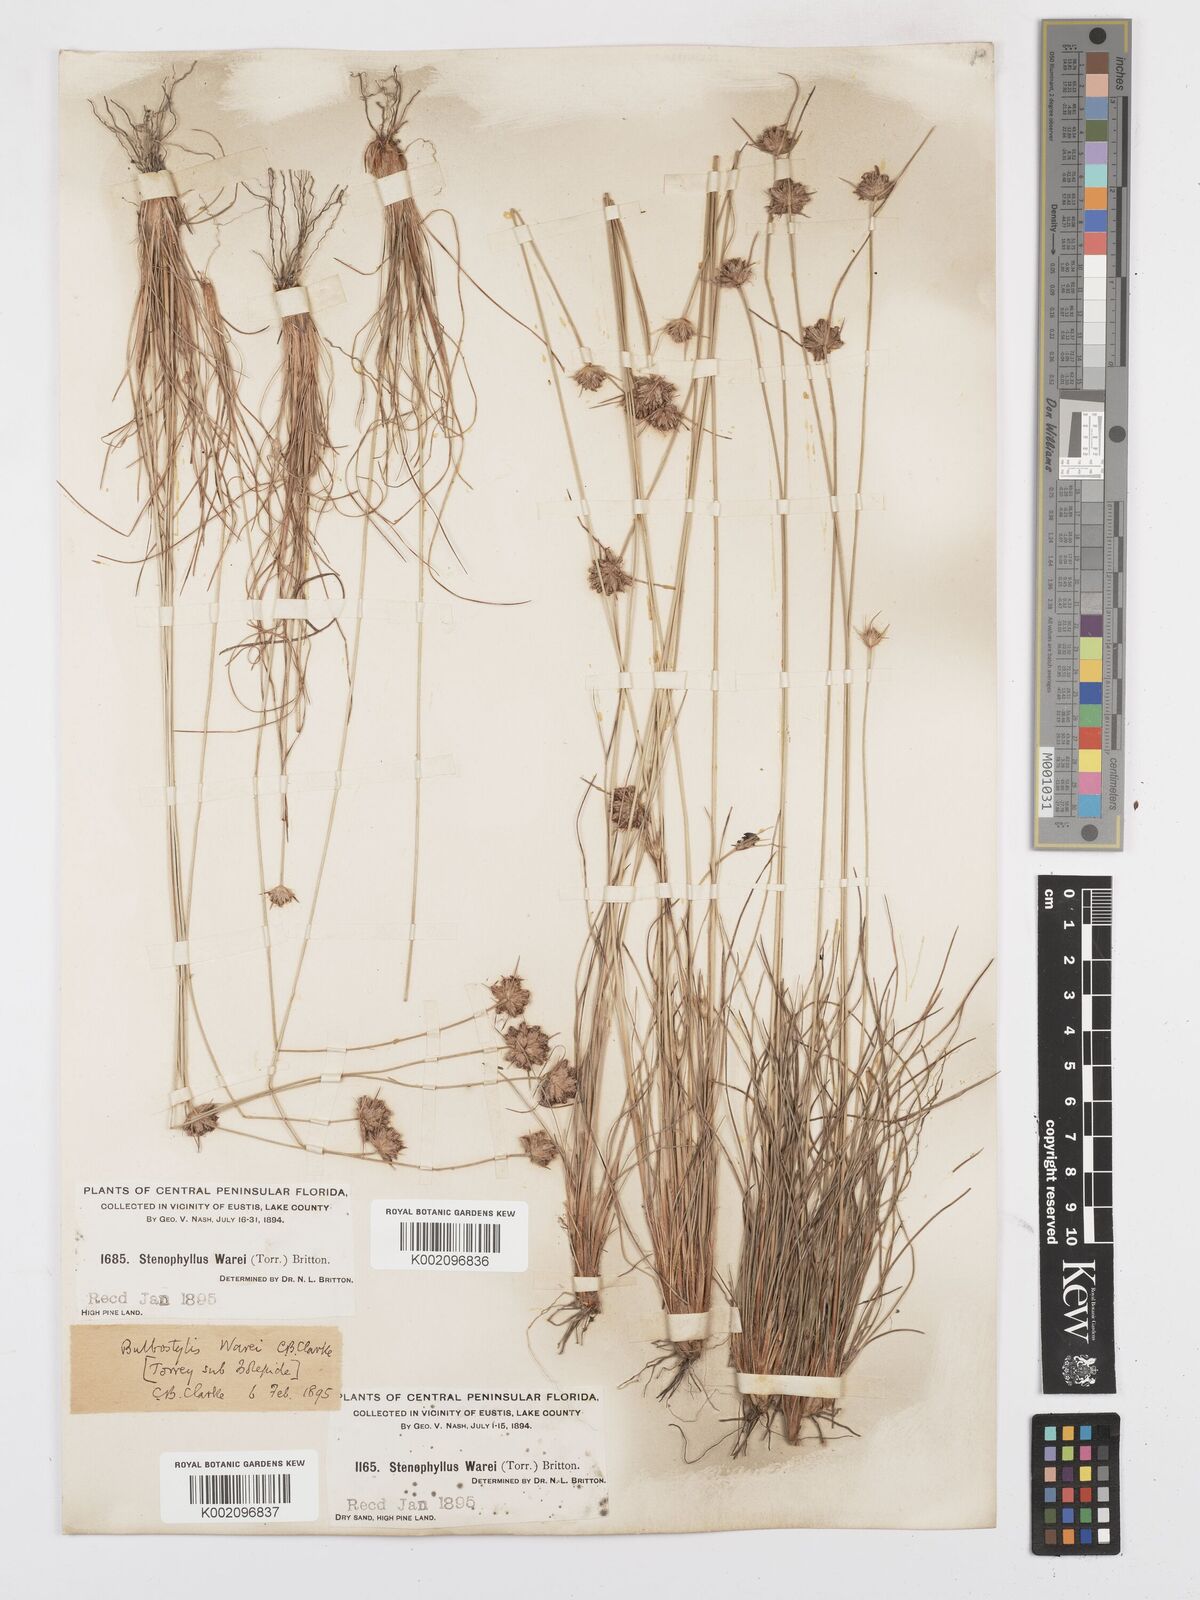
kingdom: Plantae
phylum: Tracheophyta
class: Liliopsida
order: Poales
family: Cyperaceae
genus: Bulbostylis
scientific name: Bulbostylis warei
